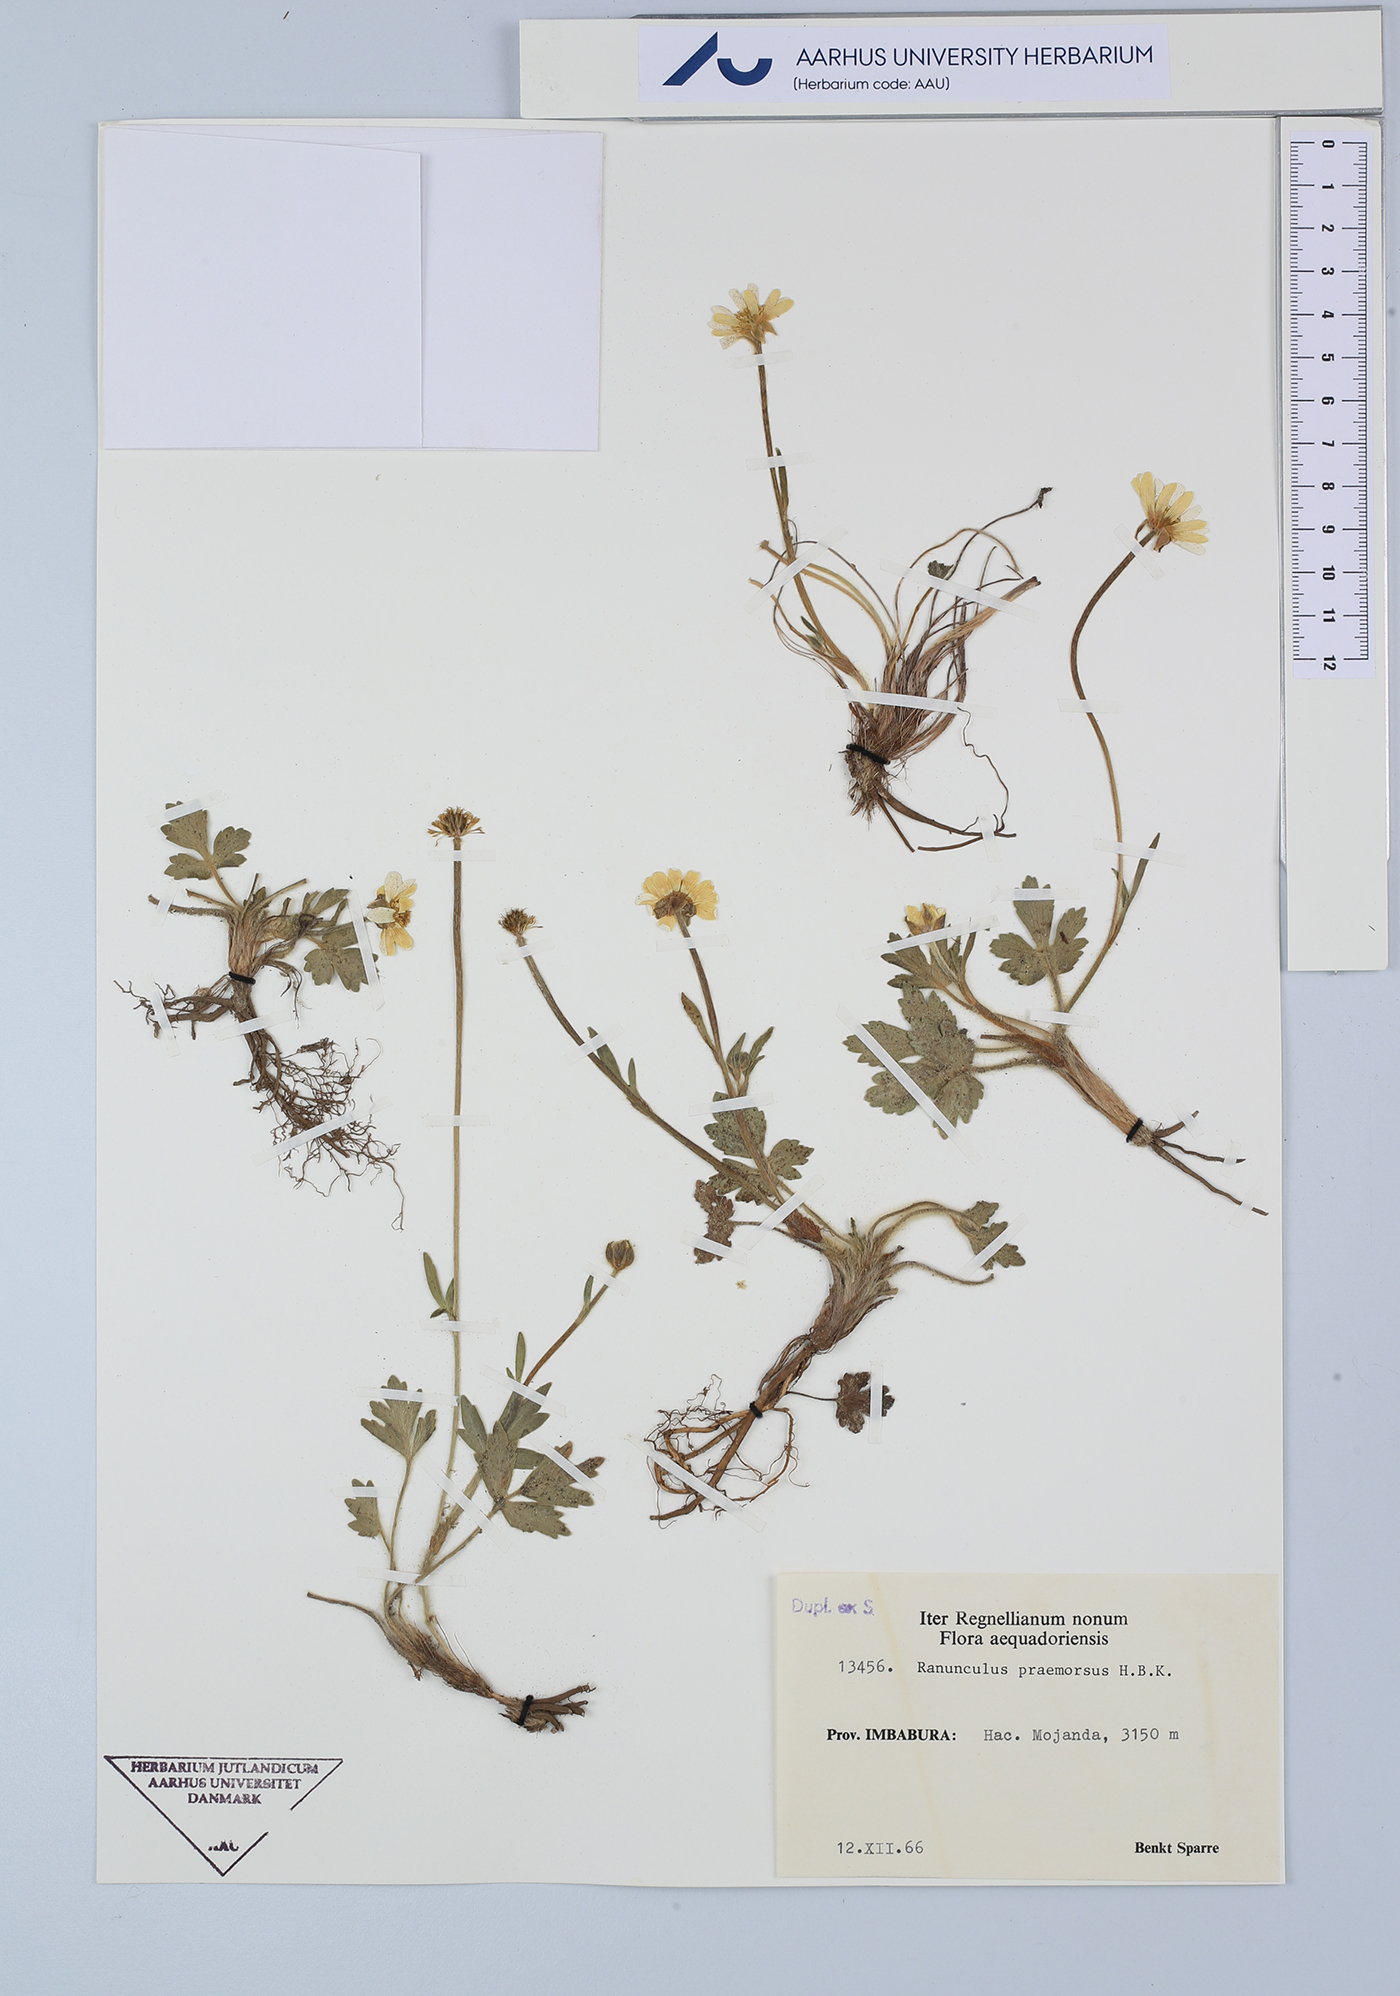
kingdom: Plantae
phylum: Tracheophyta
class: Magnoliopsida
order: Ranunculales
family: Ranunculaceae
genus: Ranunculus
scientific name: Ranunculus praemorsus
